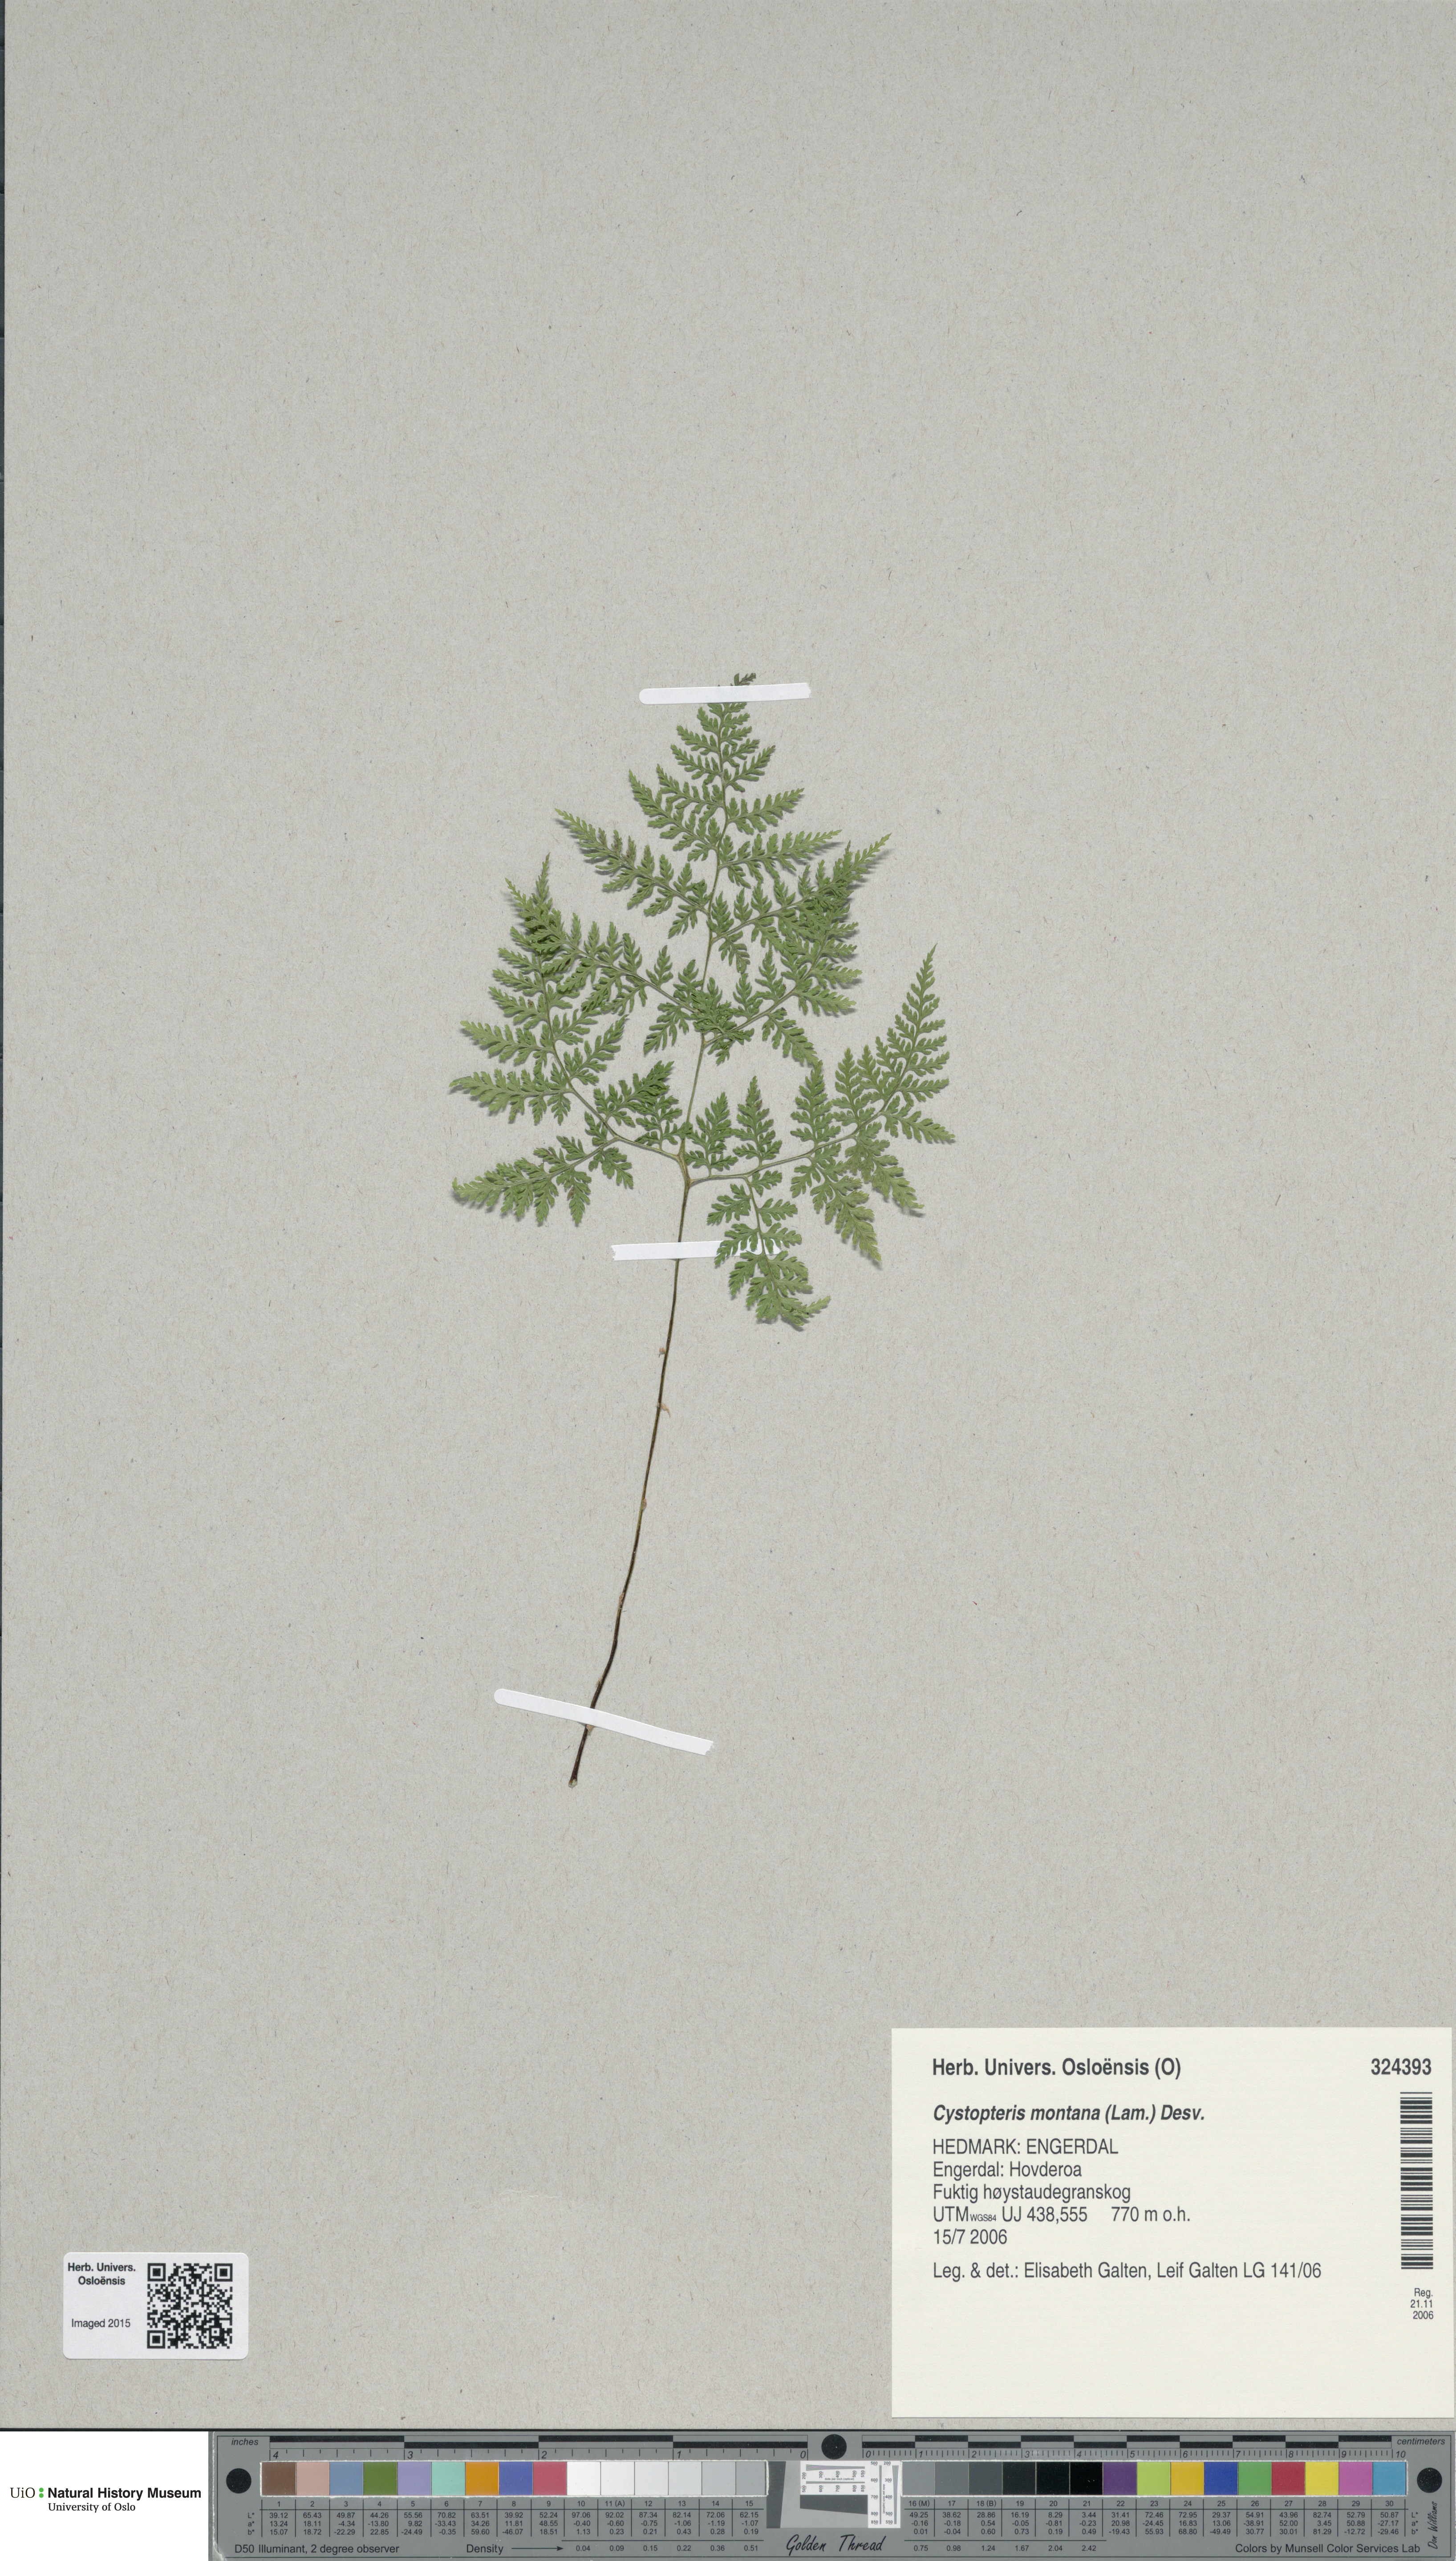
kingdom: Plantae
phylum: Tracheophyta
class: Polypodiopsida
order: Polypodiales
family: Cystopteridaceae
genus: Cystopteris
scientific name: Cystopteris montana
